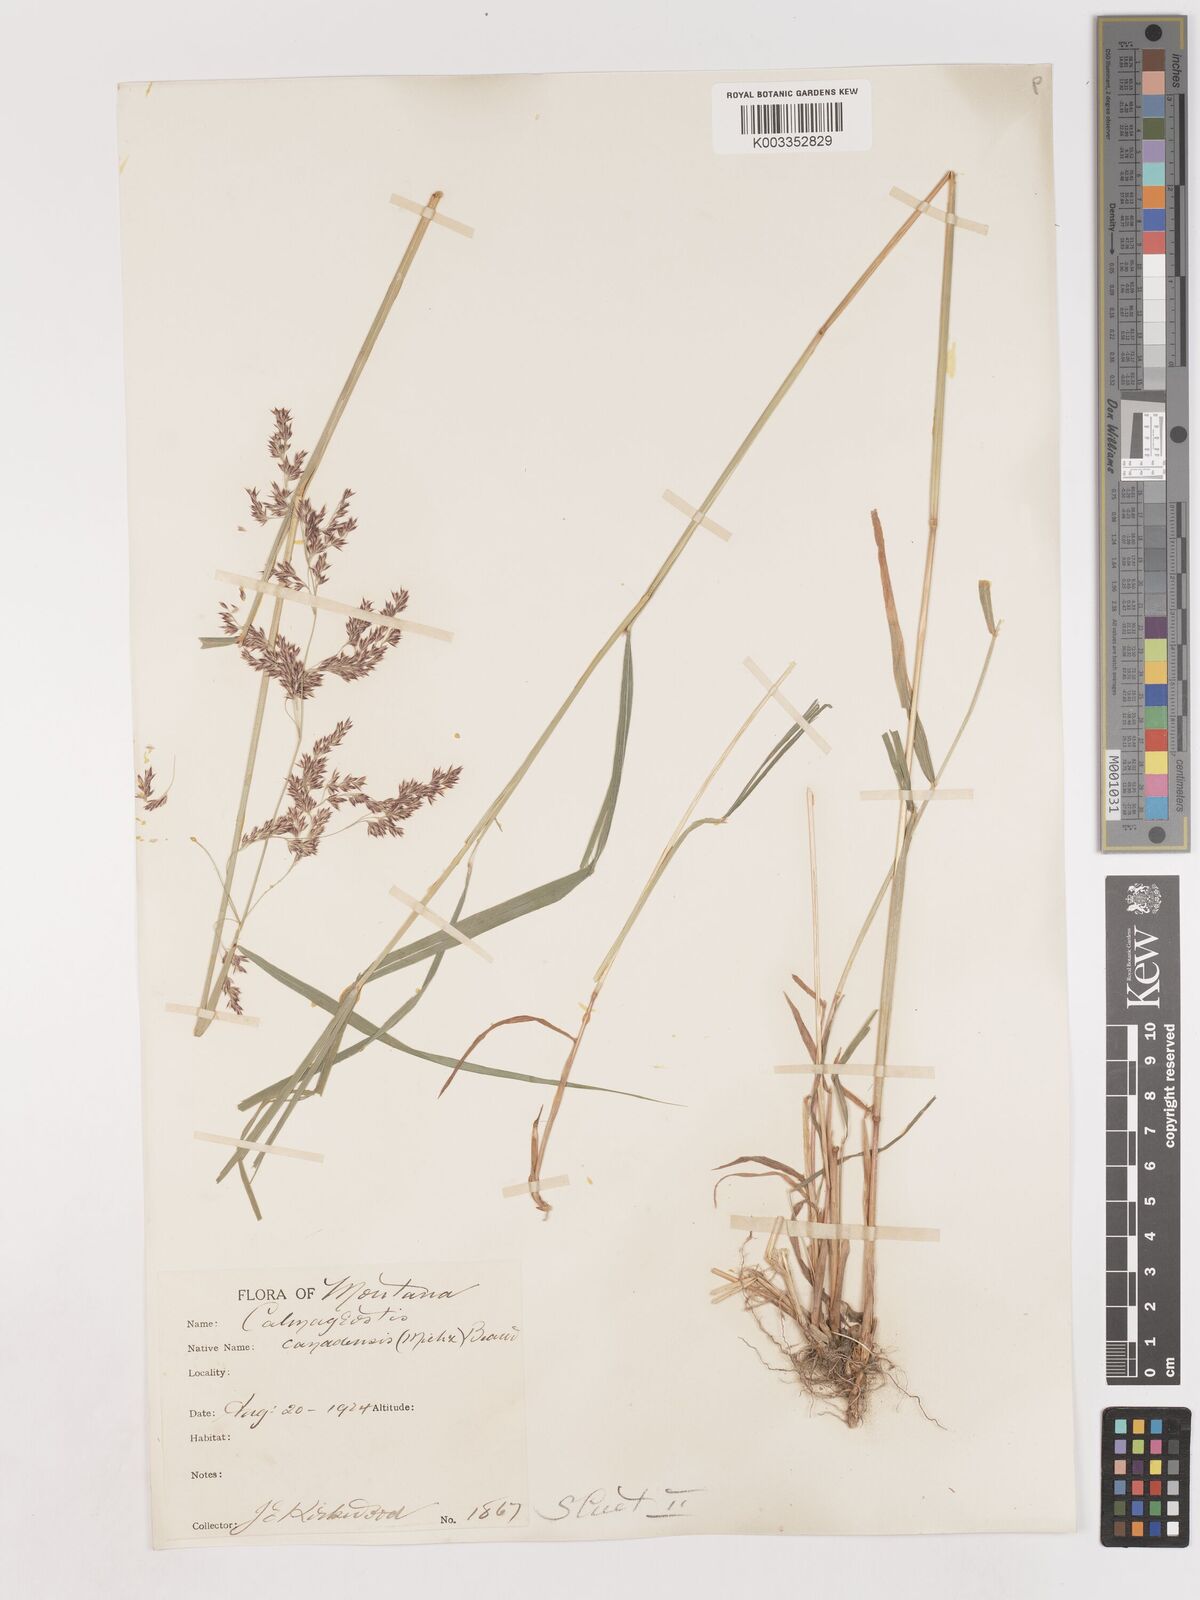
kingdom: Plantae
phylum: Tracheophyta
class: Liliopsida
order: Poales
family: Poaceae
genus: Calamagrostis
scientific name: Calamagrostis canadensis
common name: Canada bluejoint
